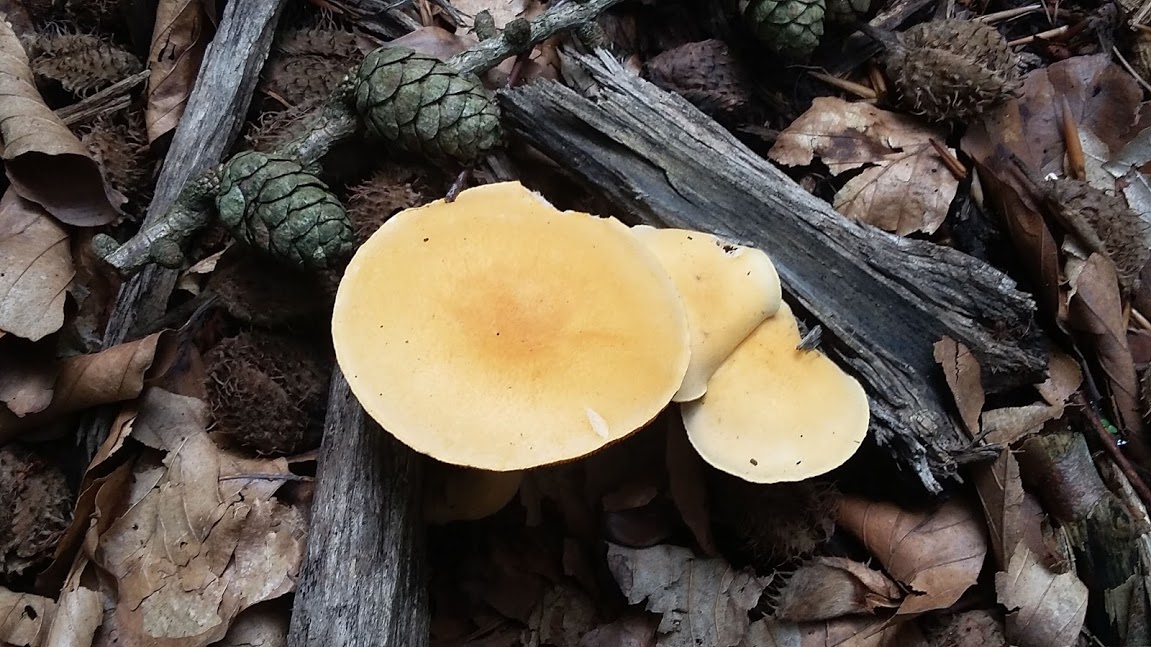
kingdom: Fungi
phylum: Basidiomycota
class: Agaricomycetes
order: Boletales
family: Hygrophoropsidaceae
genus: Hygrophoropsis
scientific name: Hygrophoropsis aurantiaca
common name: almindelig orangekantarel
